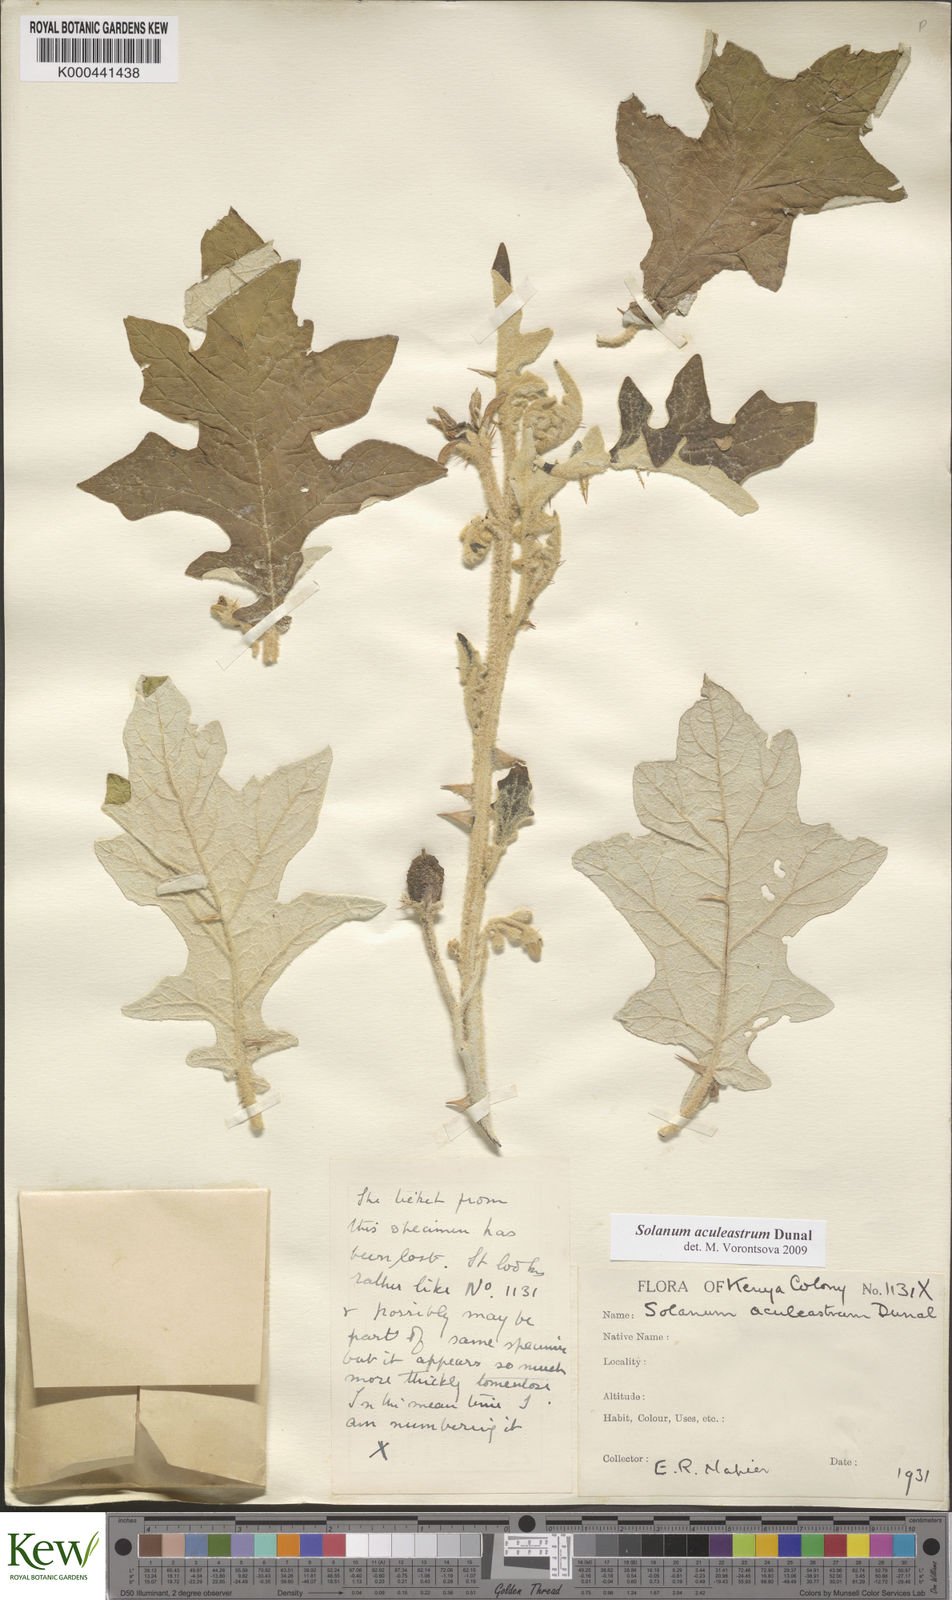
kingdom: Plantae
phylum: Tracheophyta
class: Magnoliopsida
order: Solanales
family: Solanaceae
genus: Solanum
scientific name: Solanum aculeastrum
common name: Goat bitter-apple
